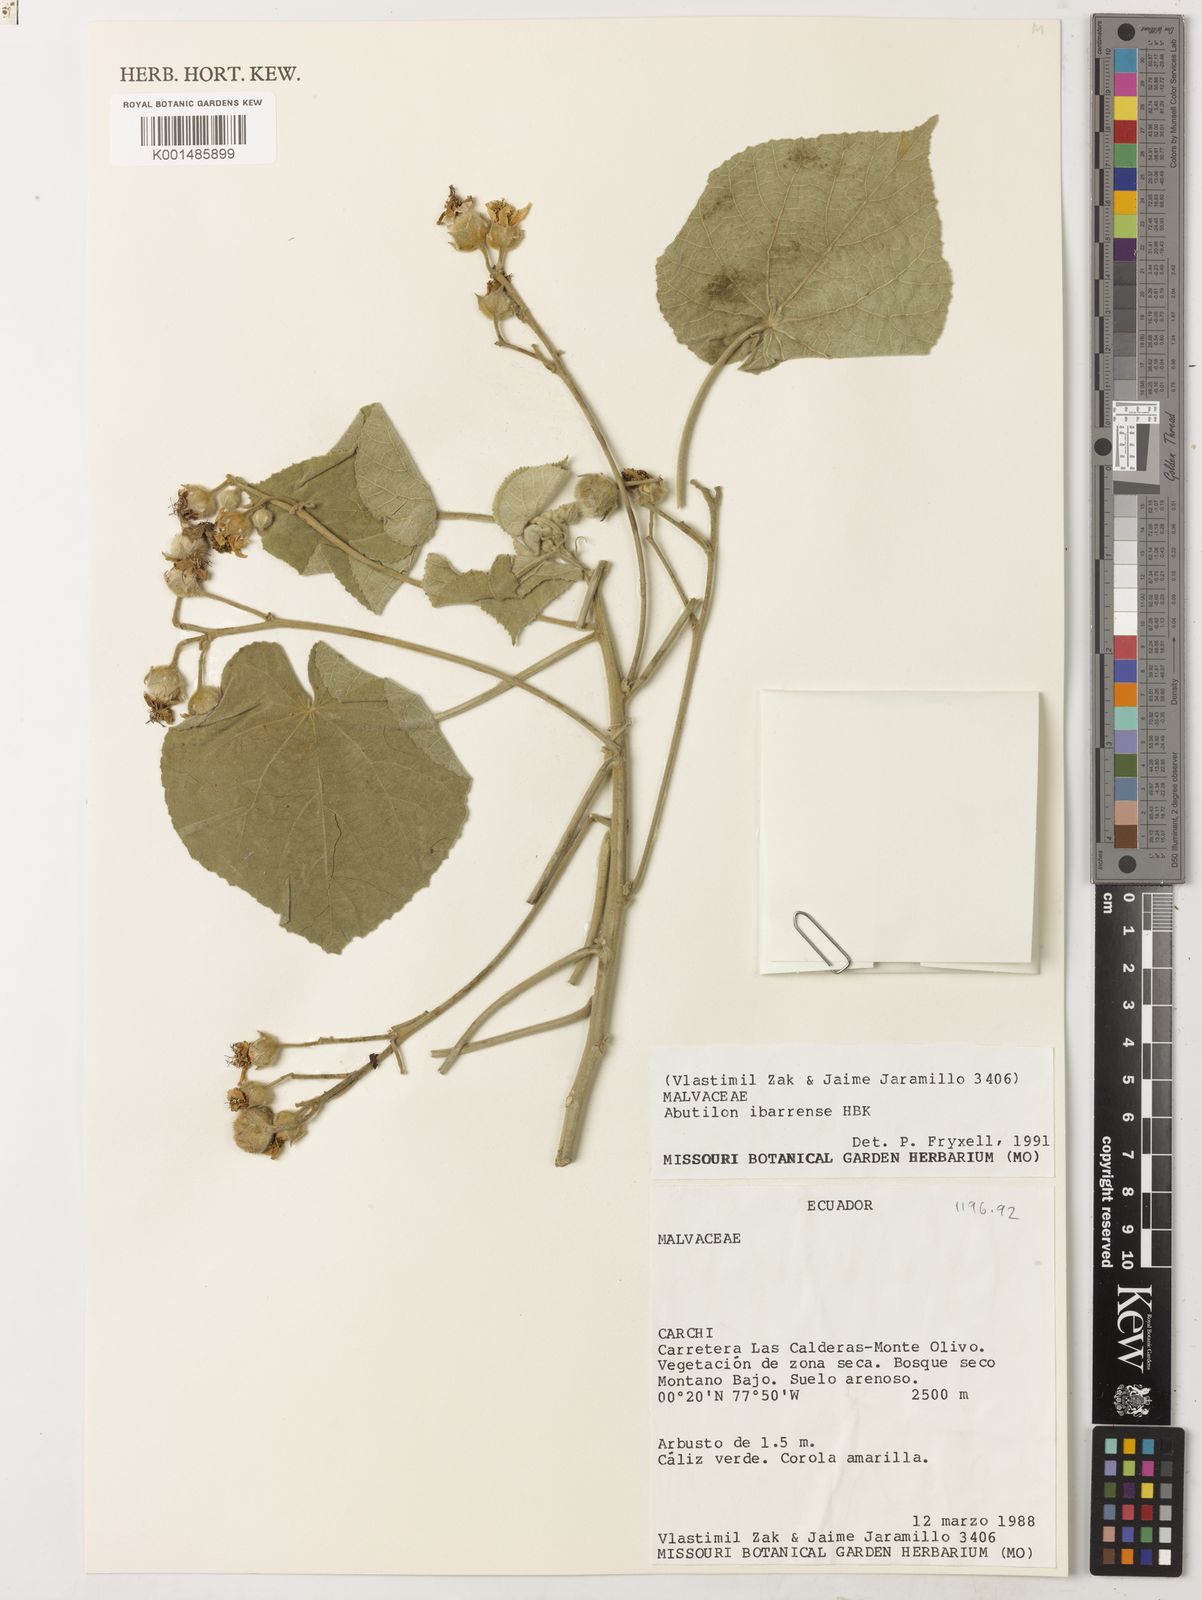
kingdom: Plantae
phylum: Tracheophyta
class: Magnoliopsida
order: Malvales
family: Malvaceae
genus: Abutilon
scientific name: Abutilon ibarrense
